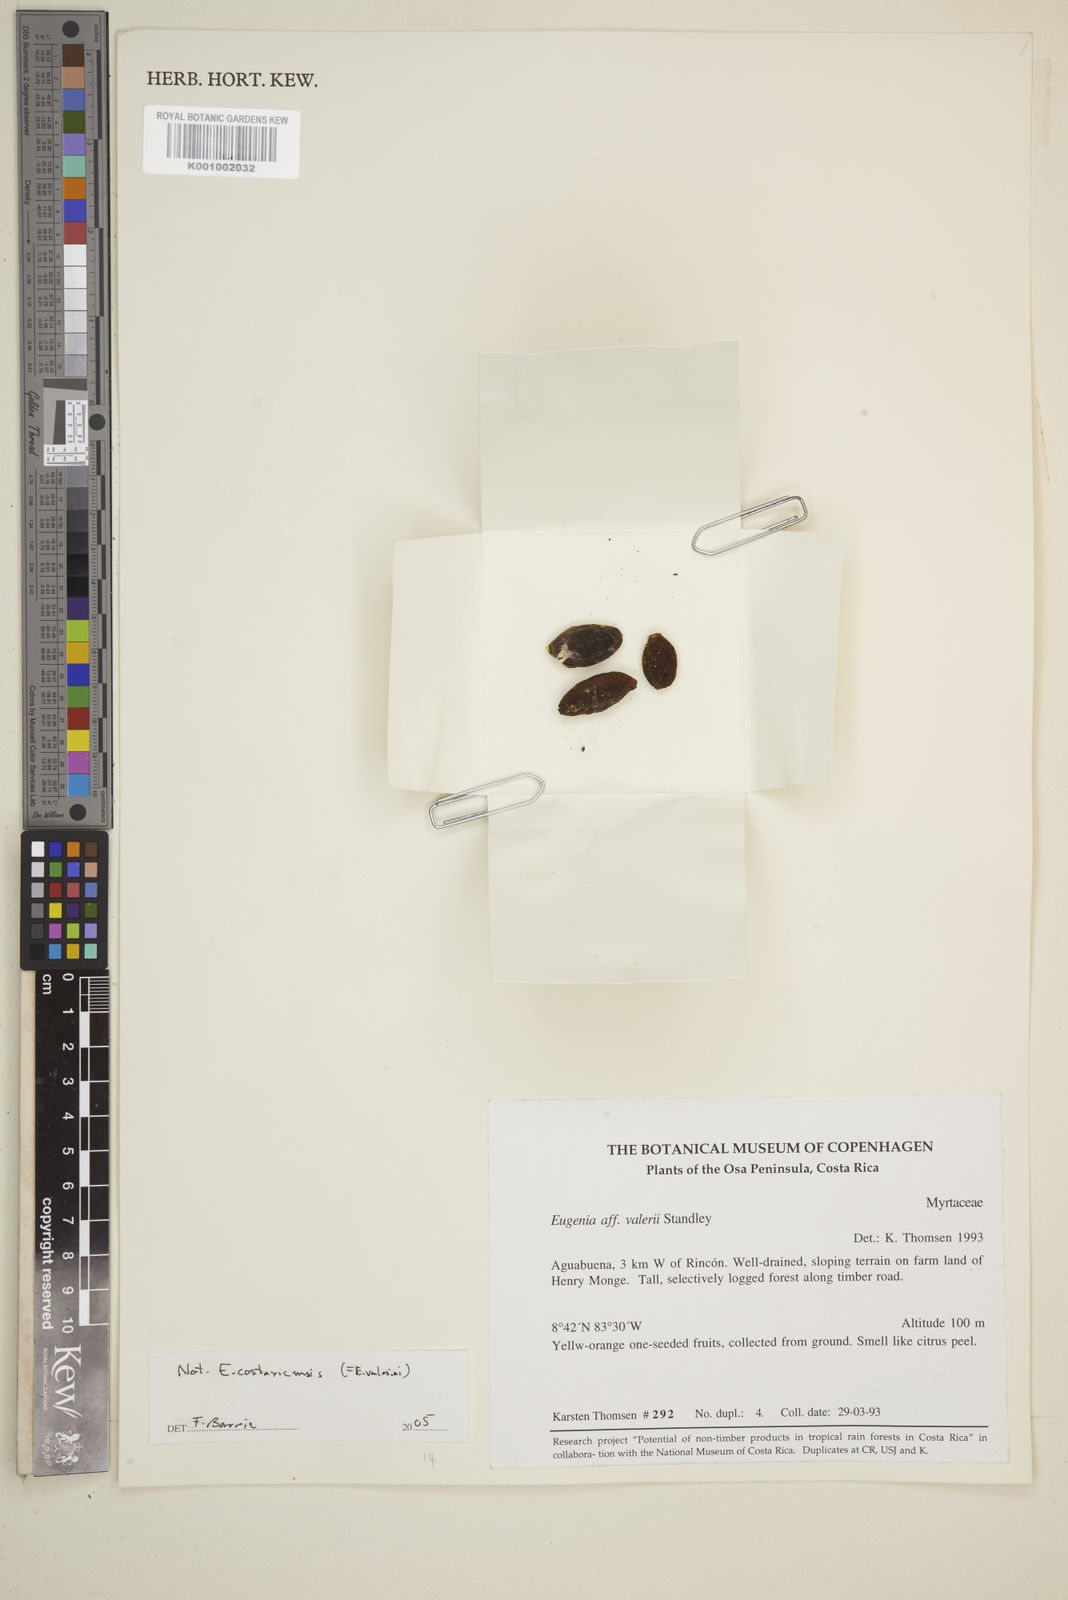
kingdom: Plantae
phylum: Tracheophyta
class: Magnoliopsida
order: Myrtales
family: Myrtaceae
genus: Eugenia
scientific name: Eugenia
